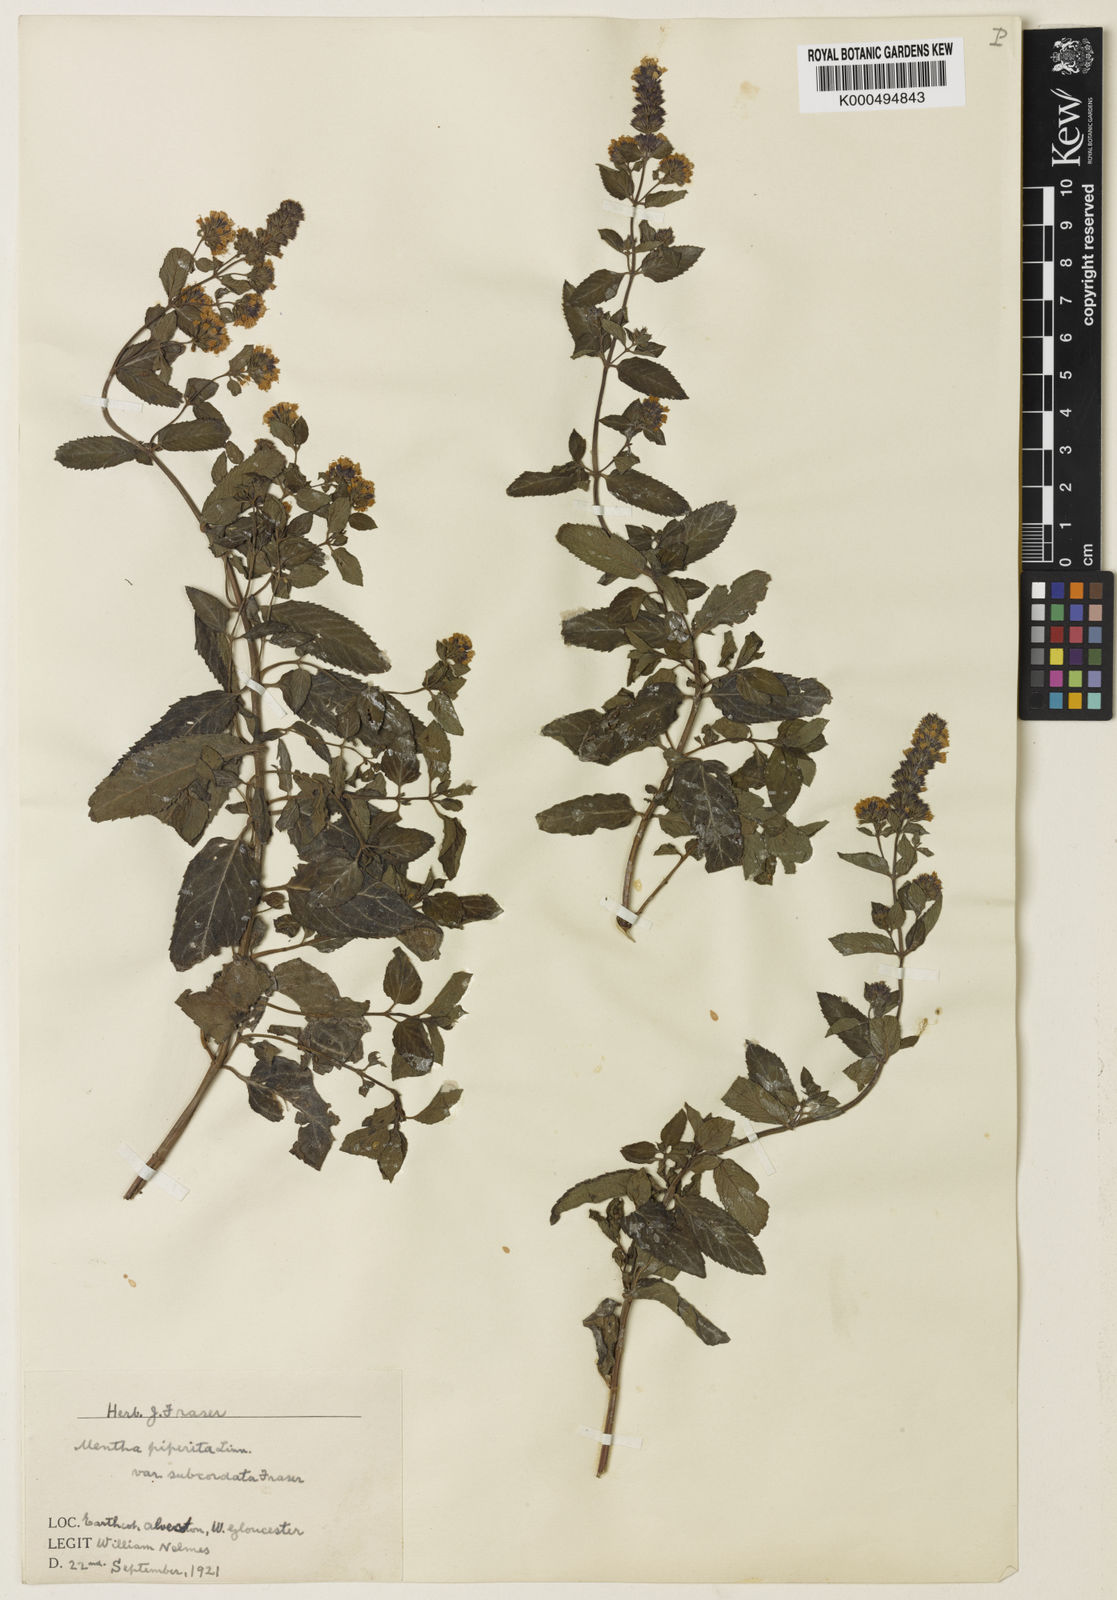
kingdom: Plantae
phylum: Tracheophyta
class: Magnoliopsida
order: Lamiales
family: Lamiaceae
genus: Mentha
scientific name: Mentha piperita
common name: Peppermint
